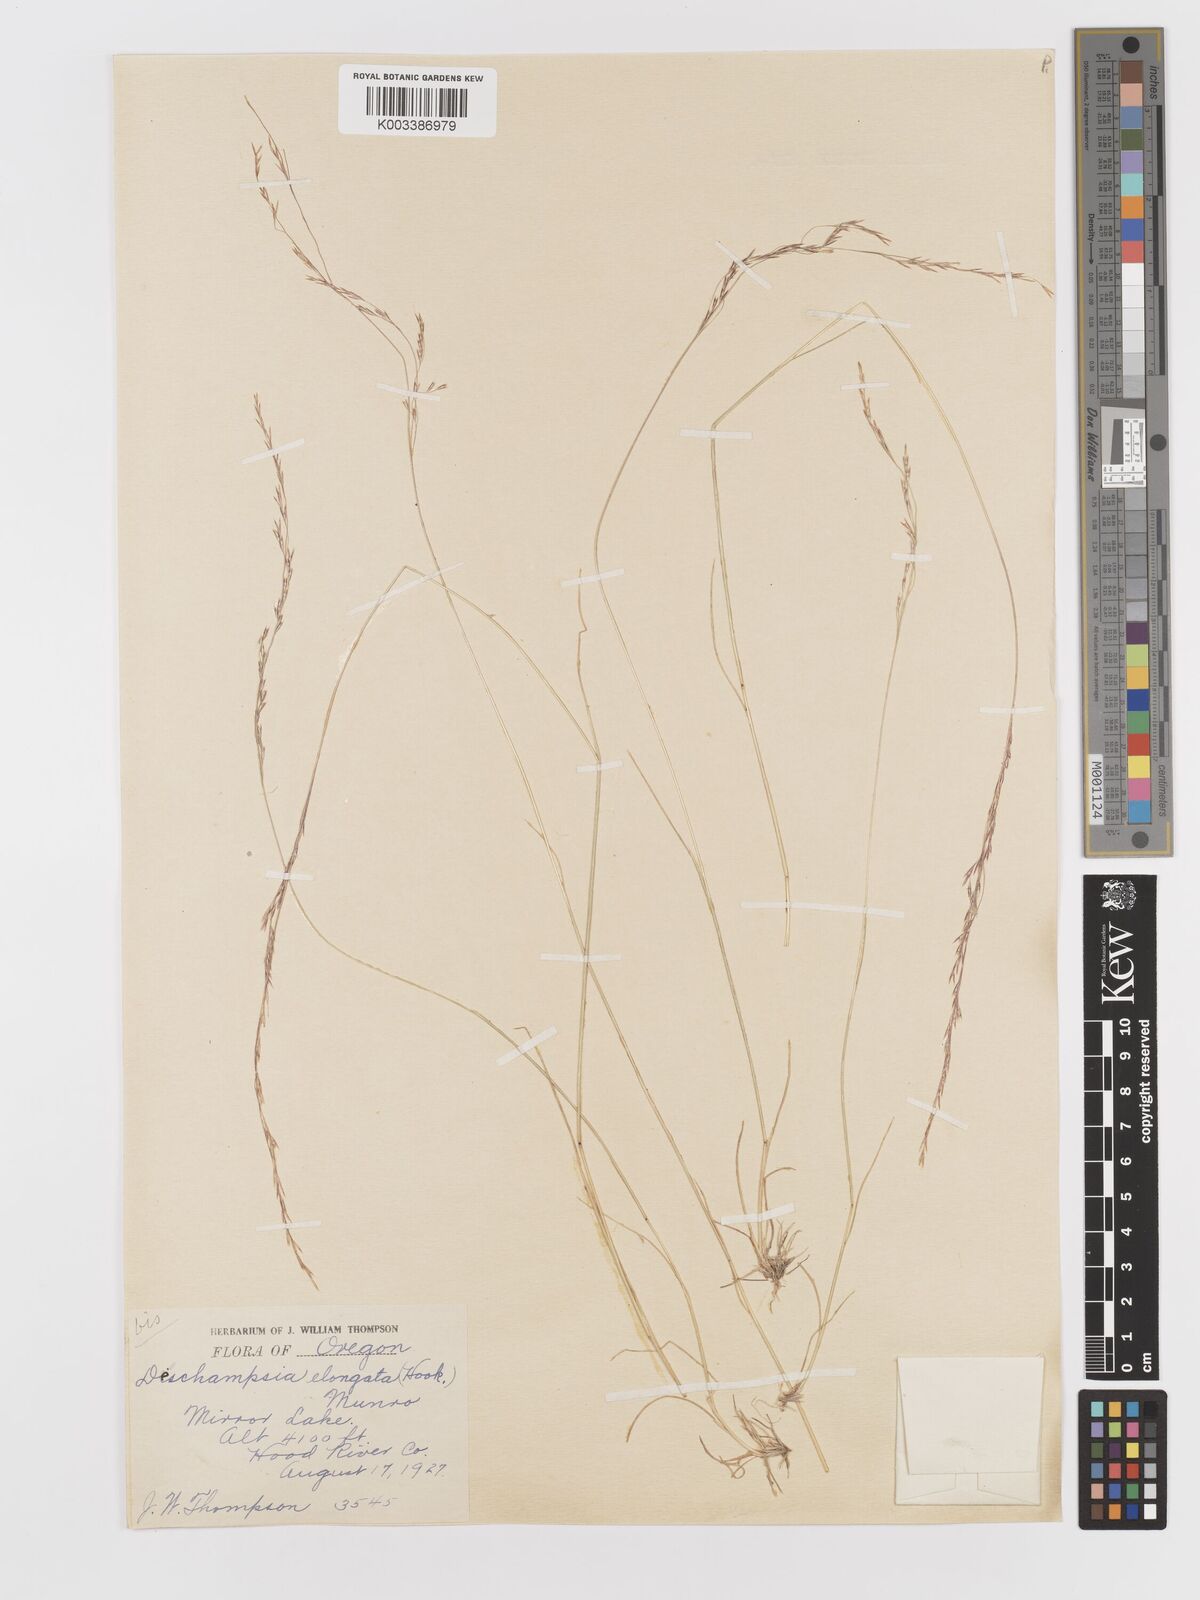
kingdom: Plantae
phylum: Tracheophyta
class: Liliopsida
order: Poales
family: Poaceae
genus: Deschampsia
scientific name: Deschampsia elongata
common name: Slender hairgrass
